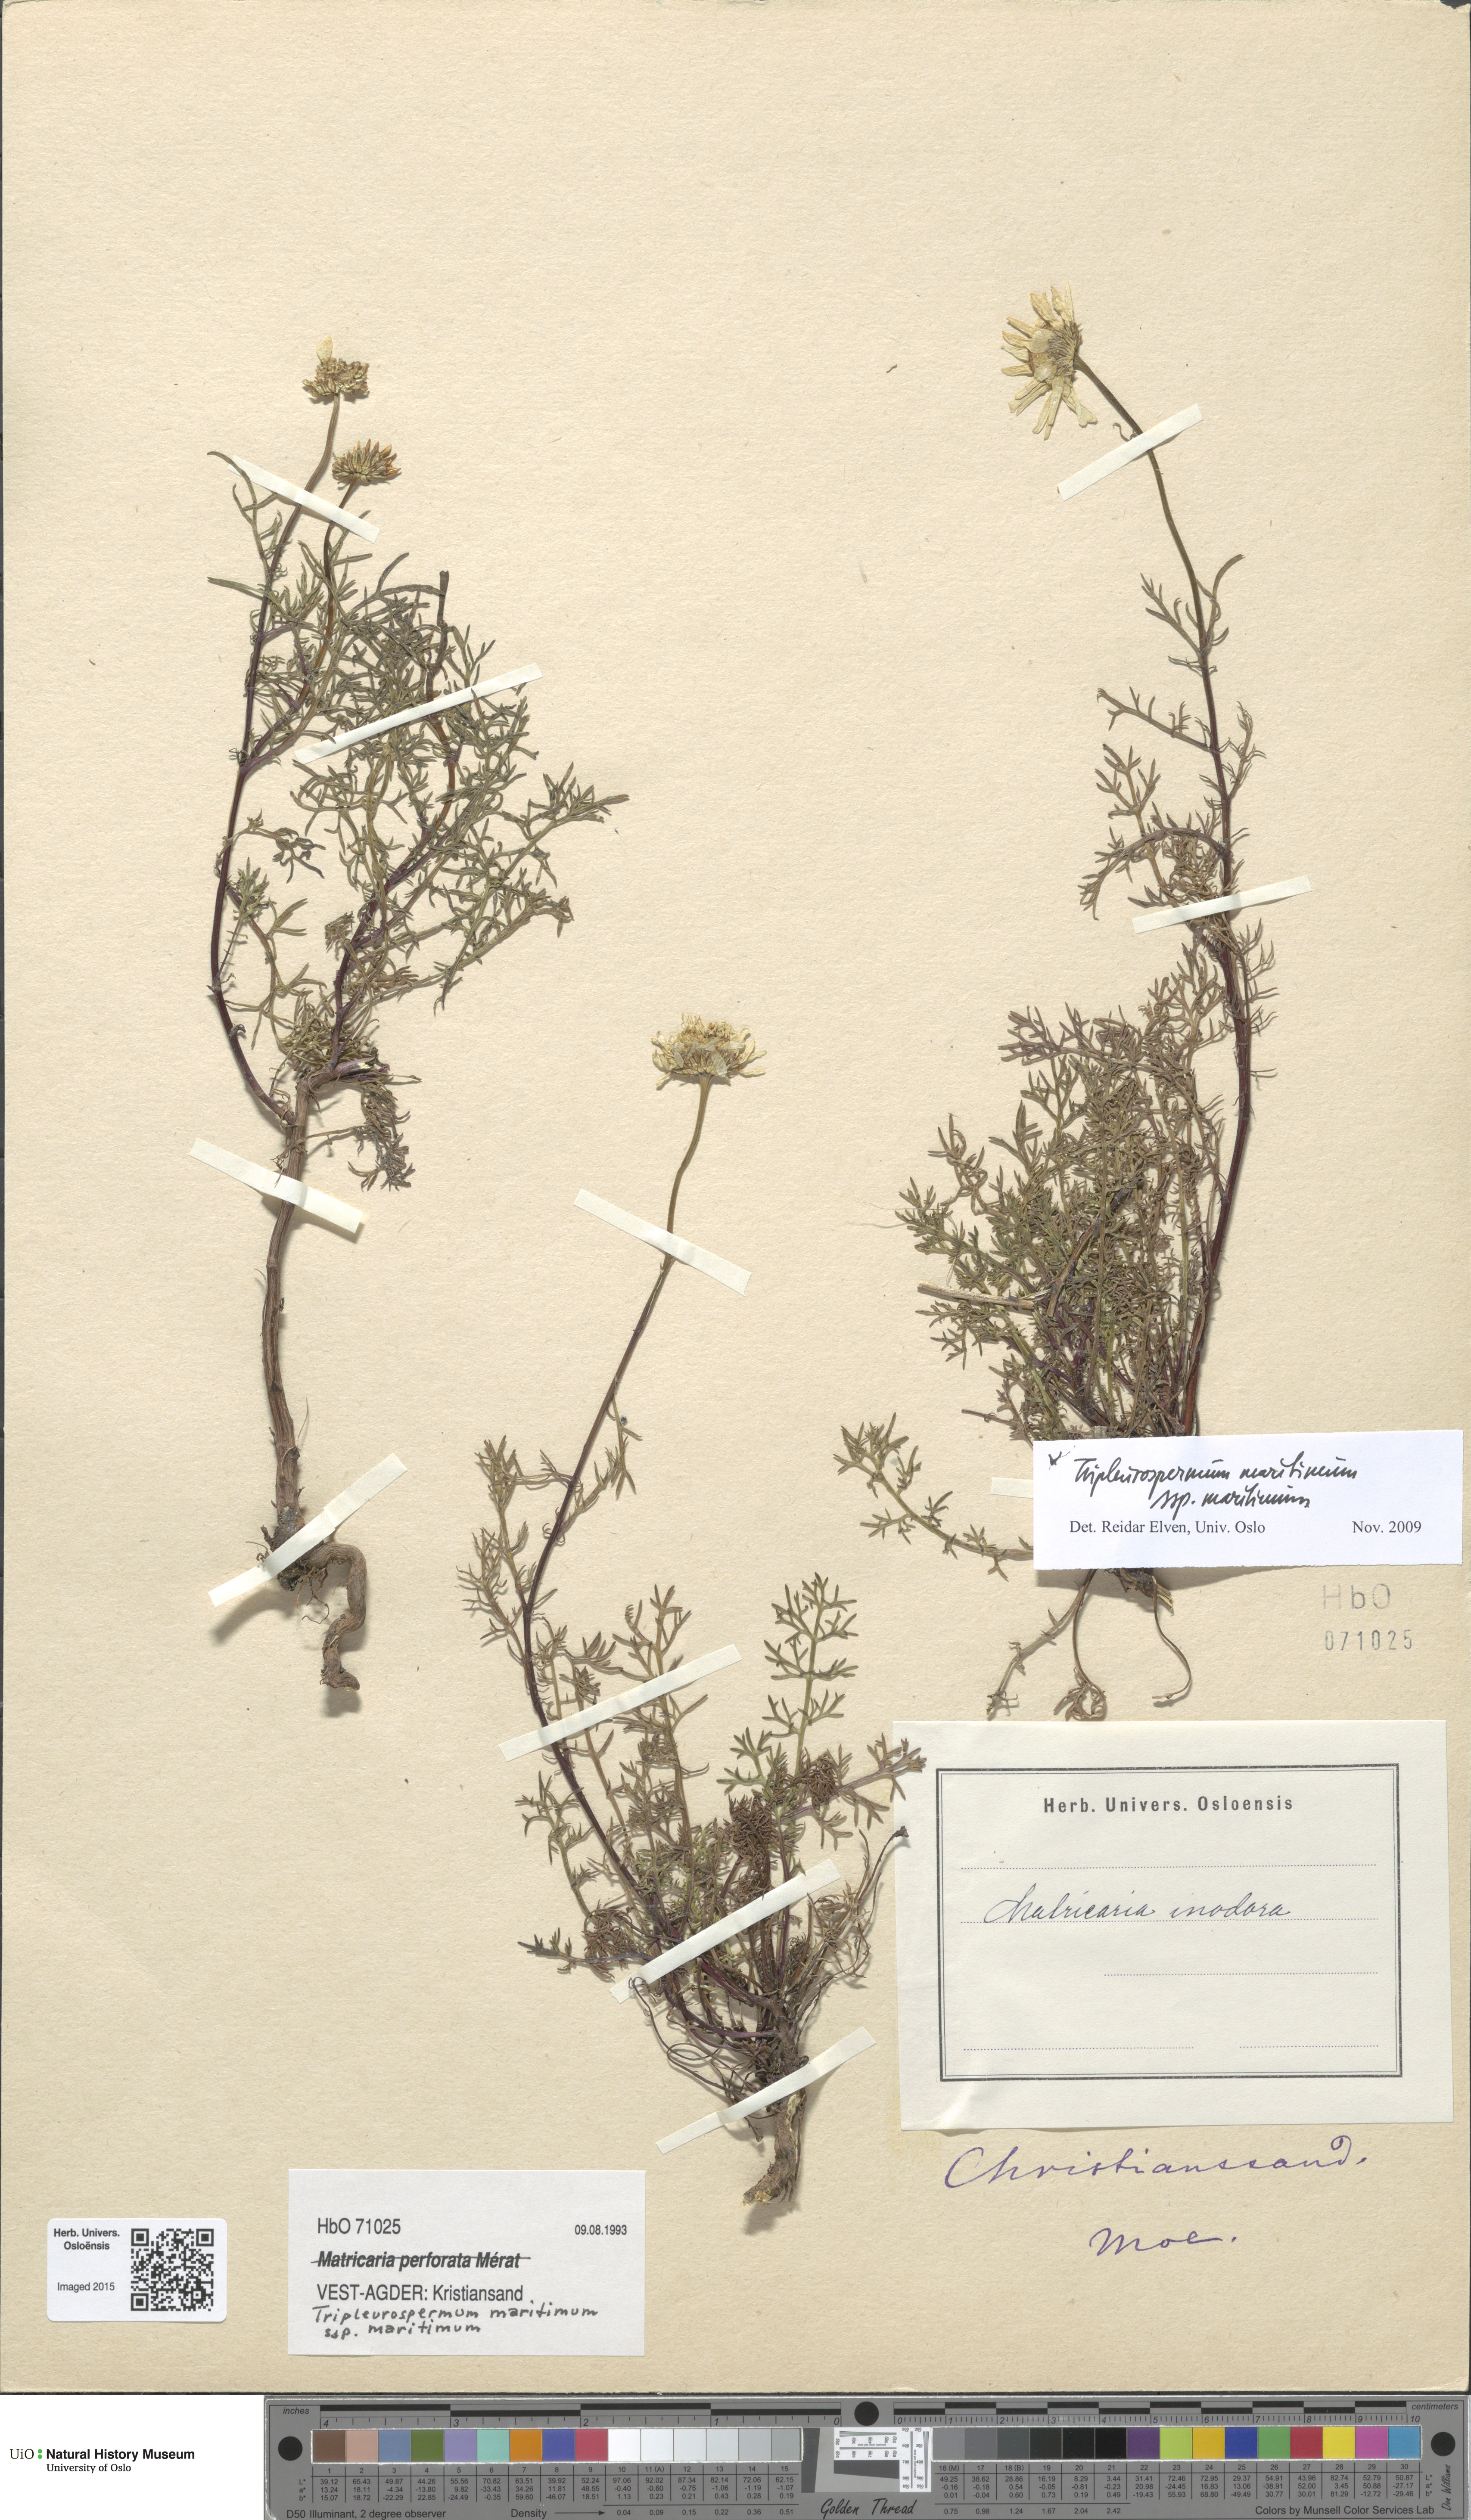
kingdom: Plantae
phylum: Tracheophyta
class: Magnoliopsida
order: Asterales
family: Asteraceae
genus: Tripleurospermum
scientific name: Tripleurospermum maritimum
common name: Sea mayweed
